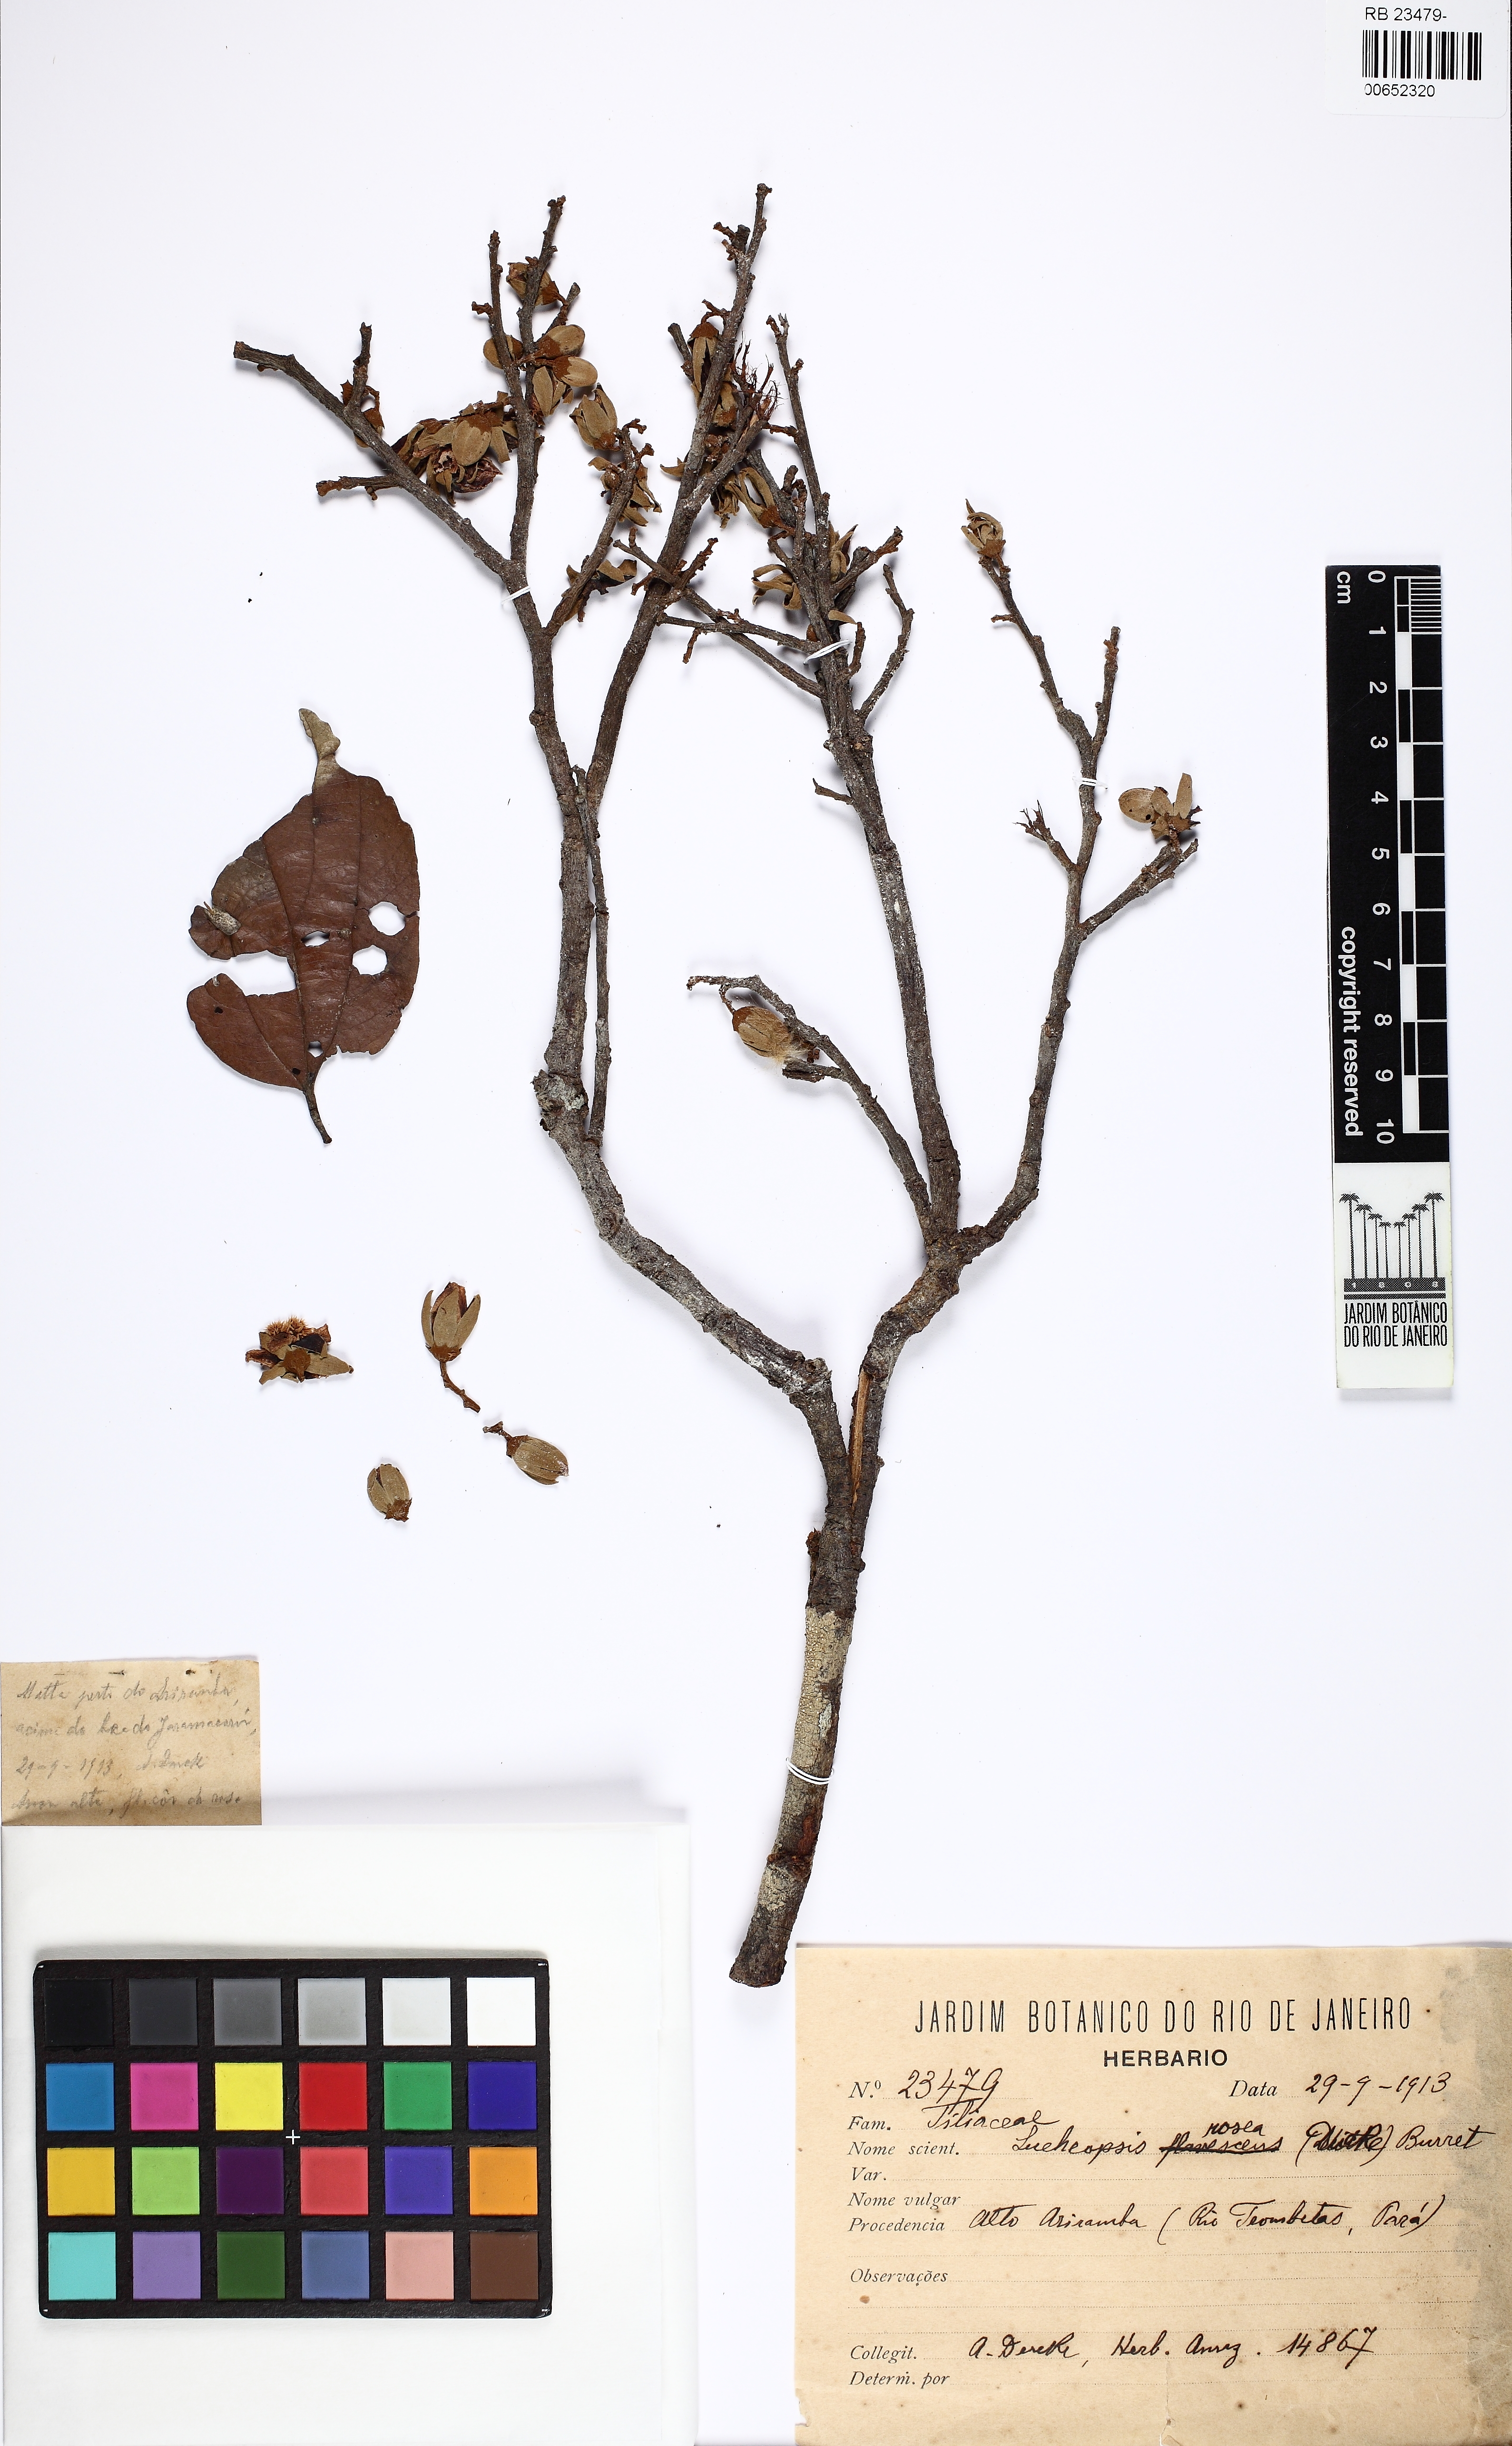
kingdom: Plantae
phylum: Tracheophyta
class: Magnoliopsida
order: Malvales
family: Malvaceae
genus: Lueheopsis
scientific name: Lueheopsis rosea
